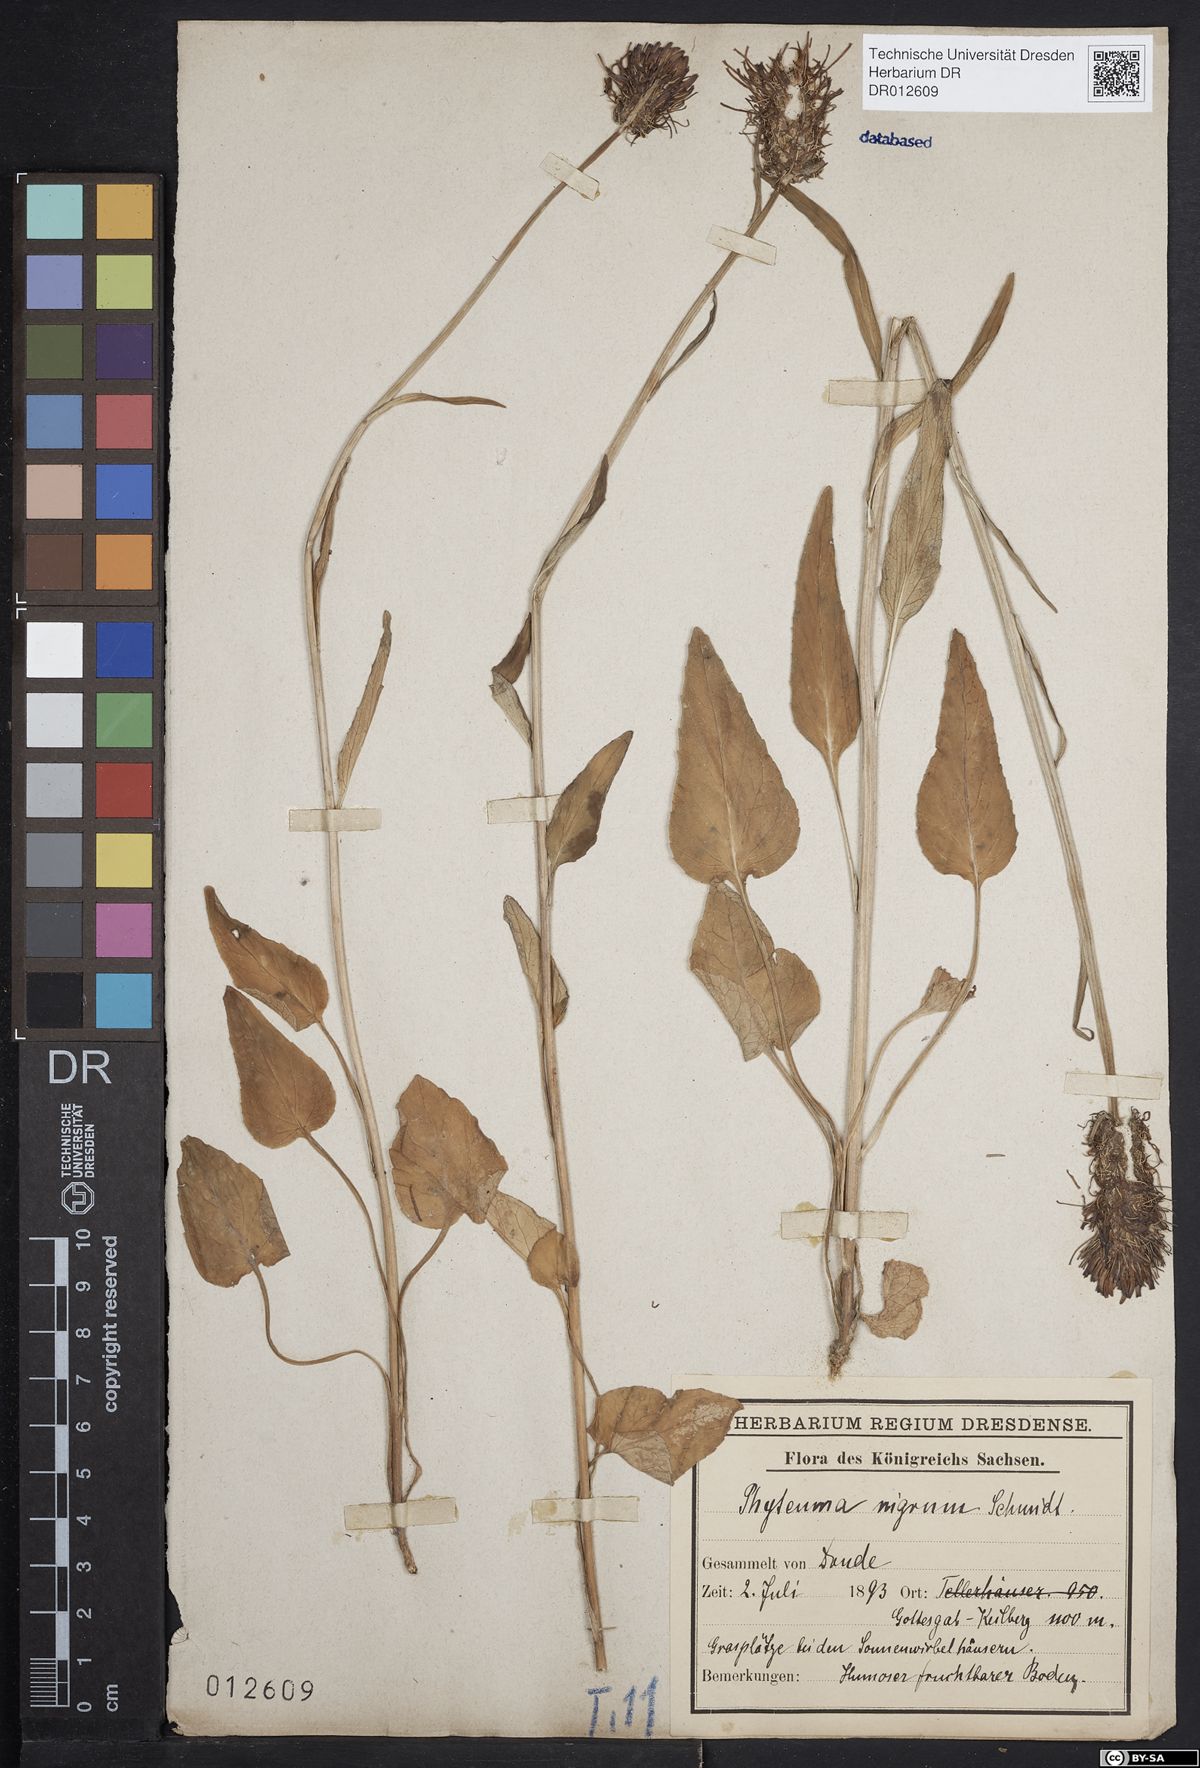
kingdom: Plantae
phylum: Tracheophyta
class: Magnoliopsida
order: Asterales
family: Campanulaceae
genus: Phyteuma
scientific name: Phyteuma nigrum
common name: Black rampion
